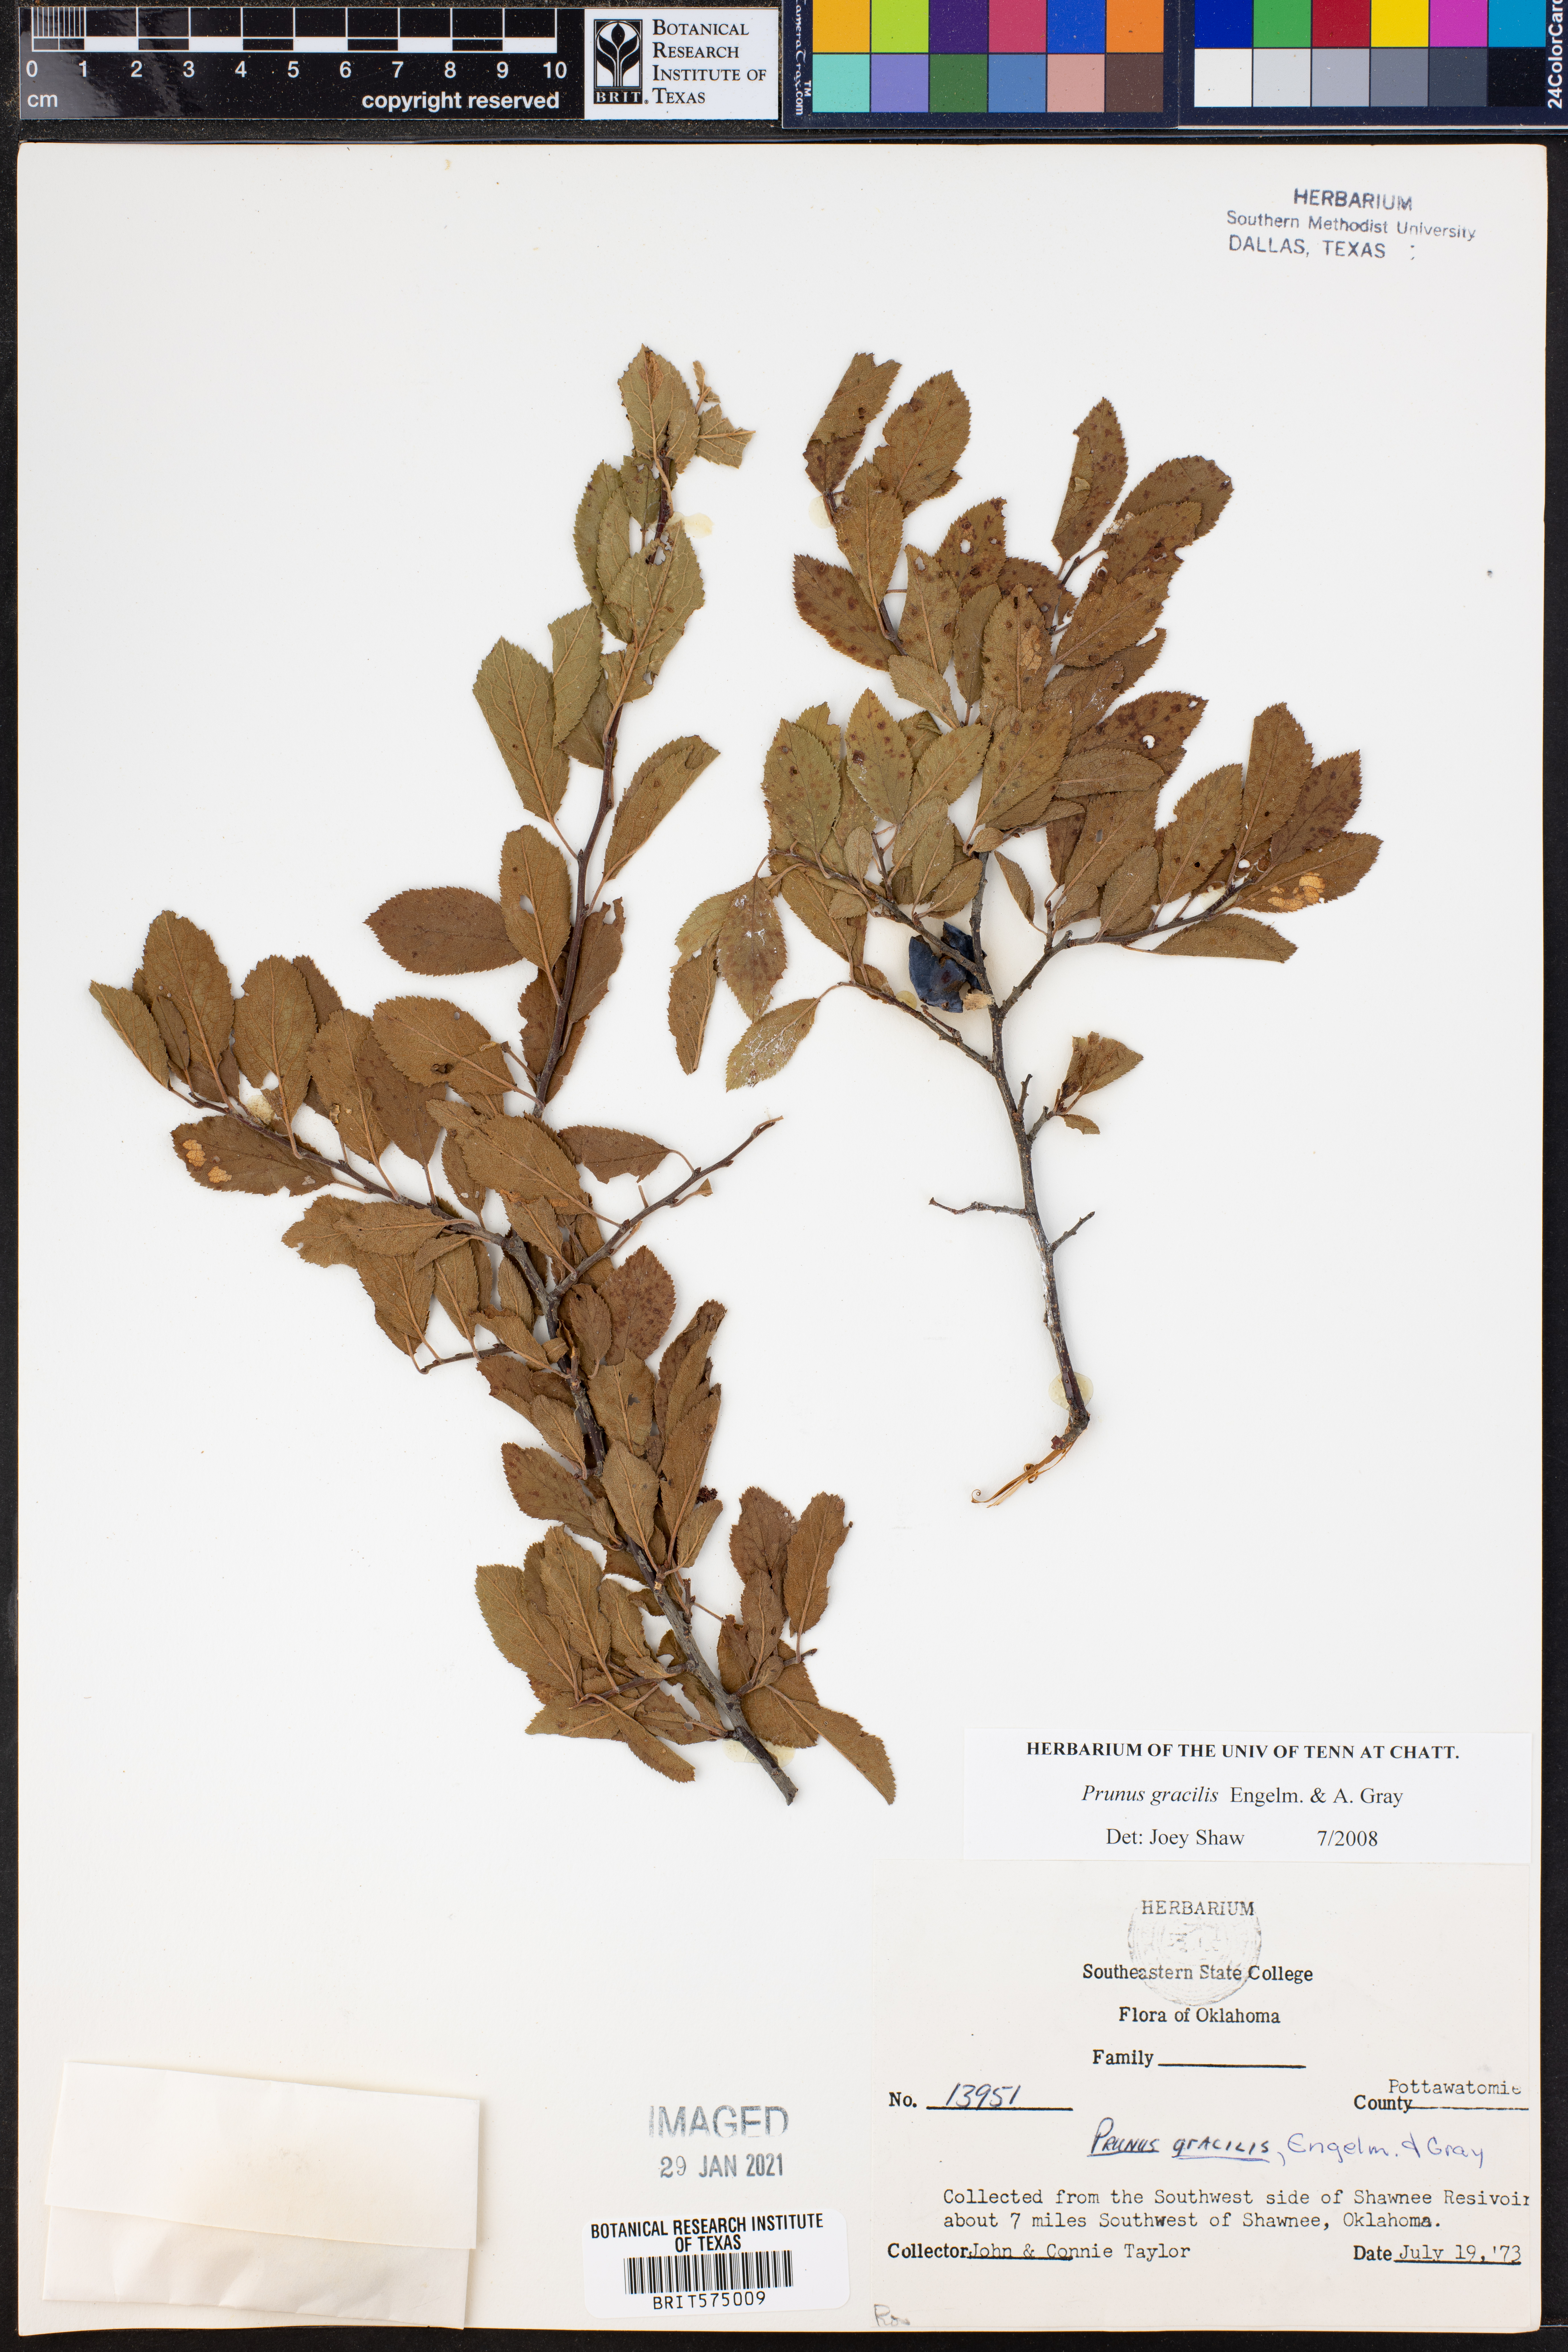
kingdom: Plantae
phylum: Tracheophyta
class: Magnoliopsida
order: Rosales
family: Rosaceae
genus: Prunus
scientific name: Prunus gracilis
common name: Oklahoma plum
